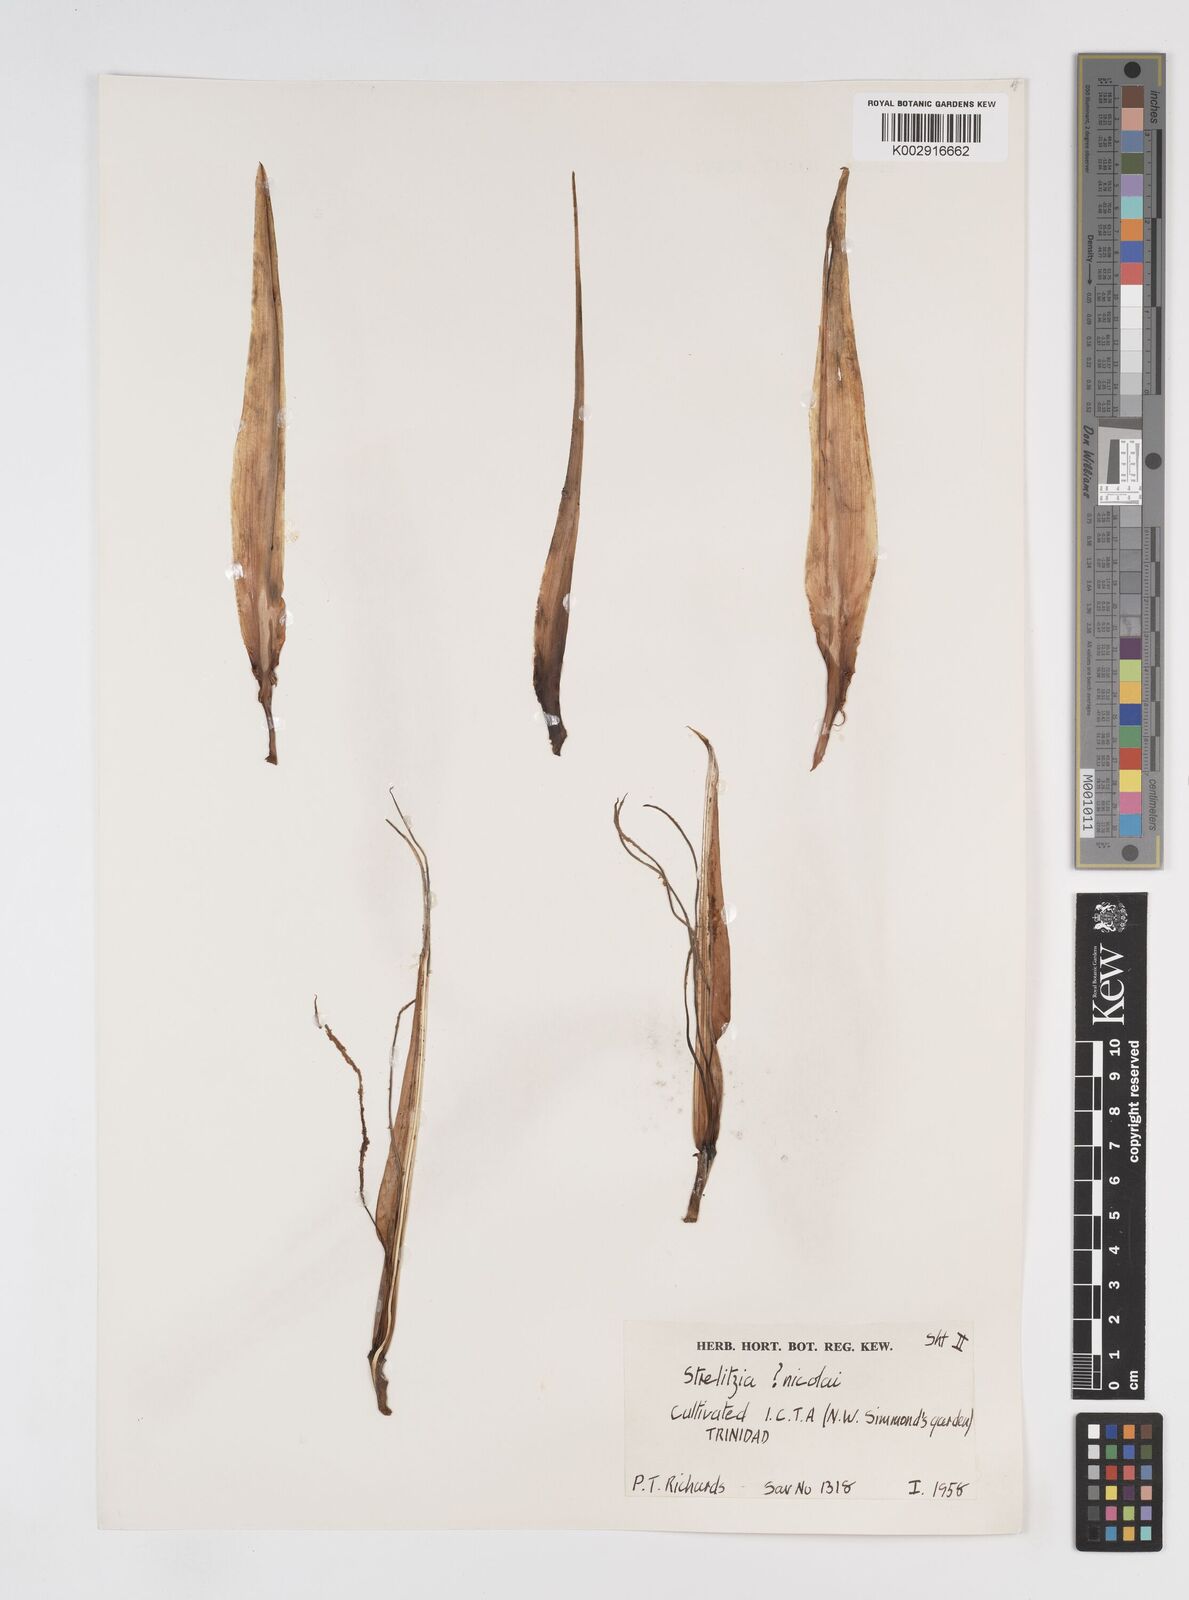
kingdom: Plantae
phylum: Tracheophyta
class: Liliopsida
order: Zingiberales
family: Strelitziaceae
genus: Strelitzia
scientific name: Strelitzia nicolai
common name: Bird-of-paradise tree
